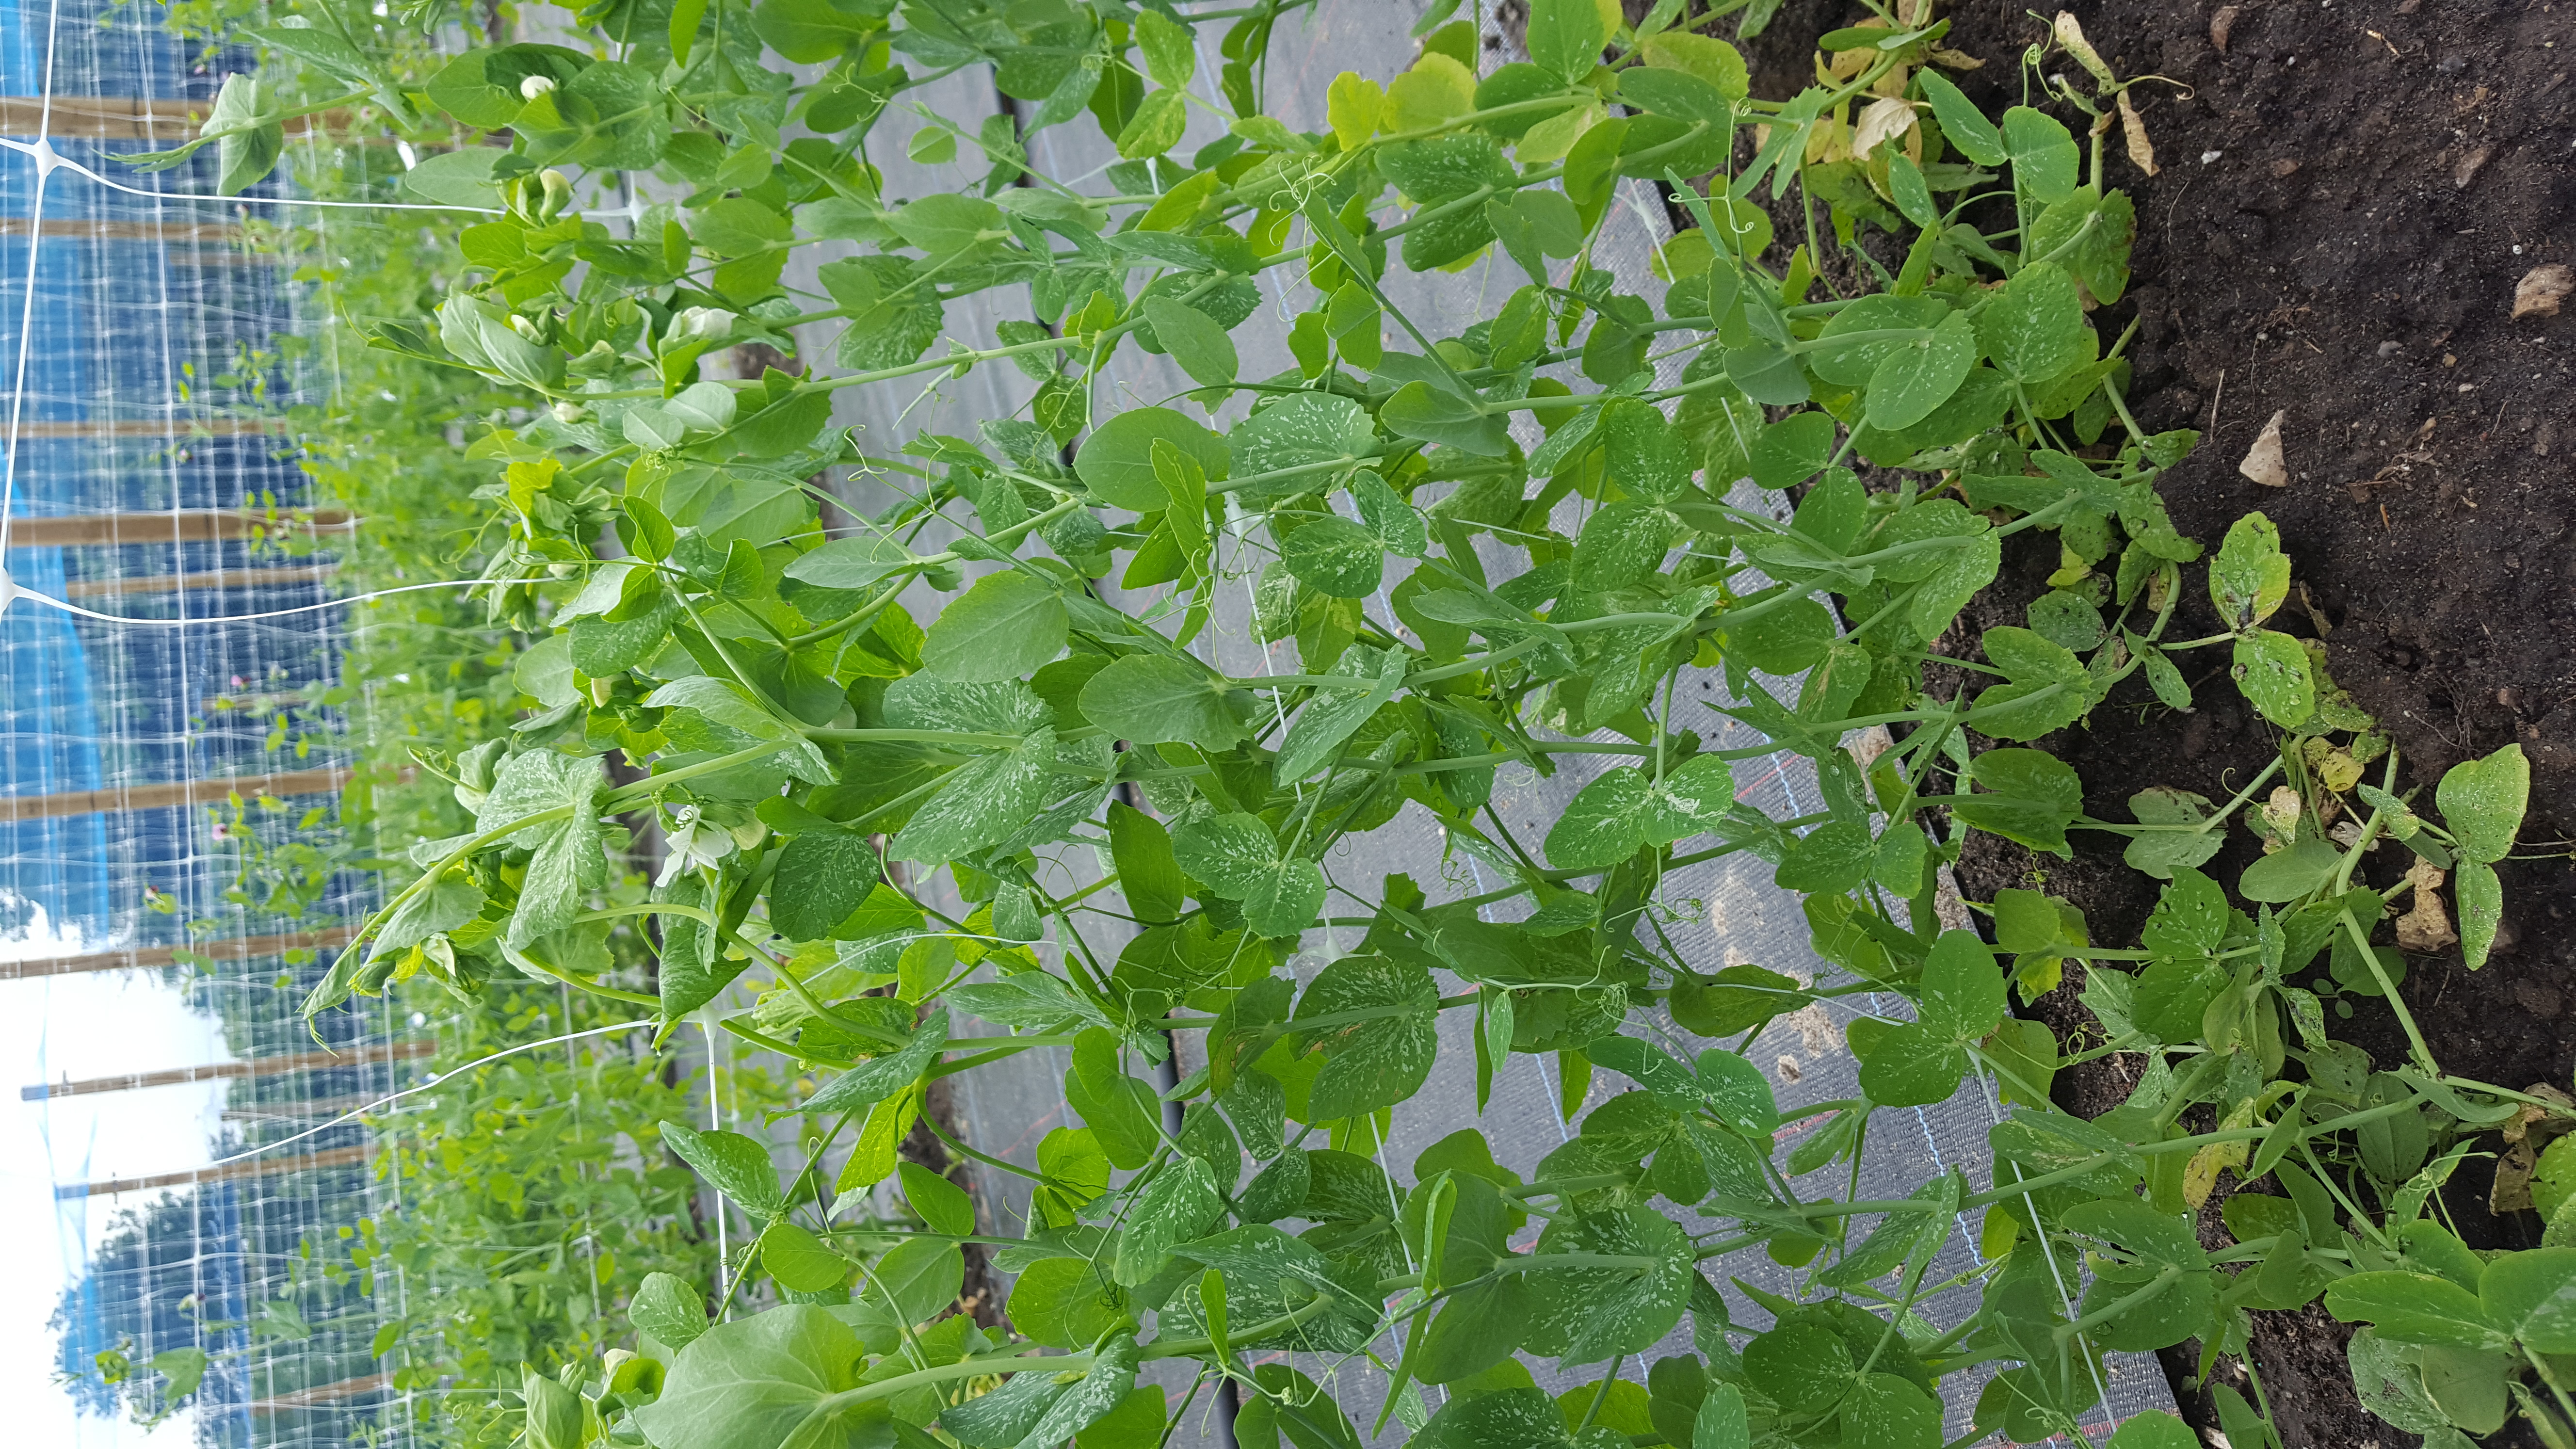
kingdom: Plantae
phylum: Tracheophyta
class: Magnoliopsida
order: Fabales
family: Fabaceae
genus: Lathyrus
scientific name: Lathyrus oleraceus
